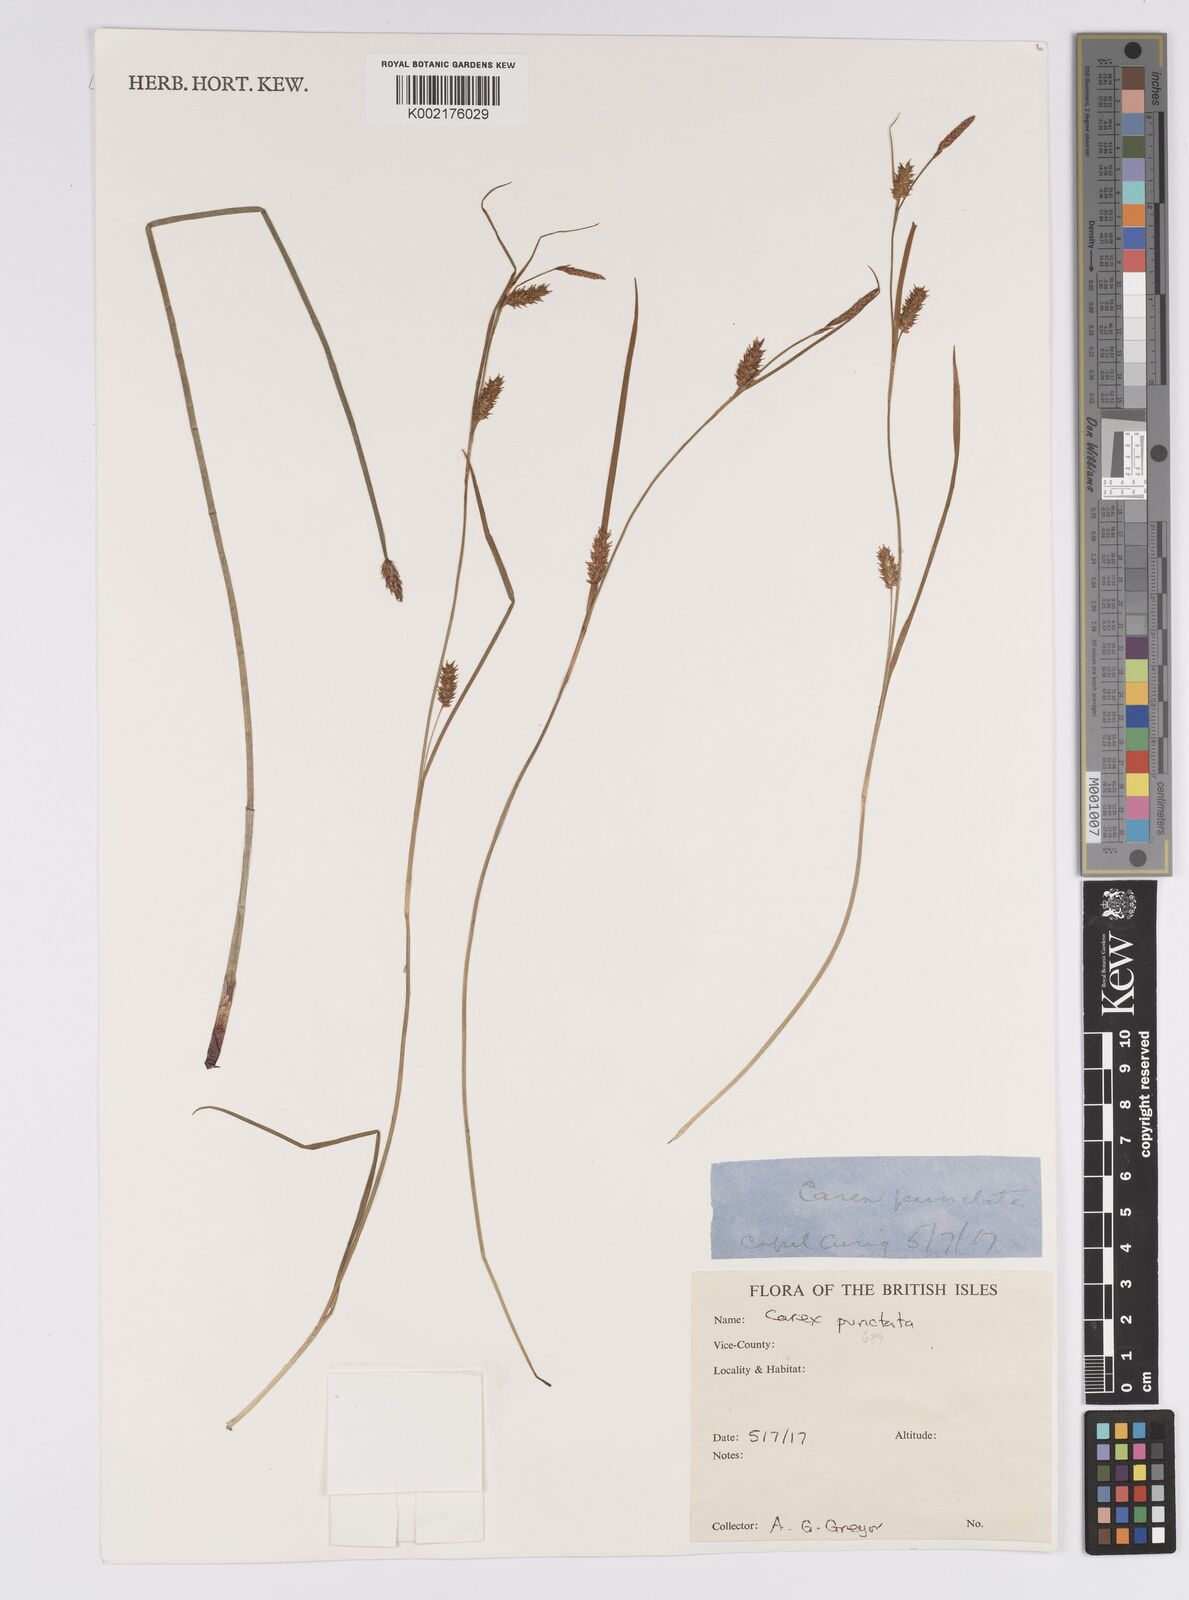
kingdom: Plantae
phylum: Tracheophyta
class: Liliopsida
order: Poales
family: Cyperaceae
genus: Carex
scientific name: Carex punctata
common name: Dotted sedge
